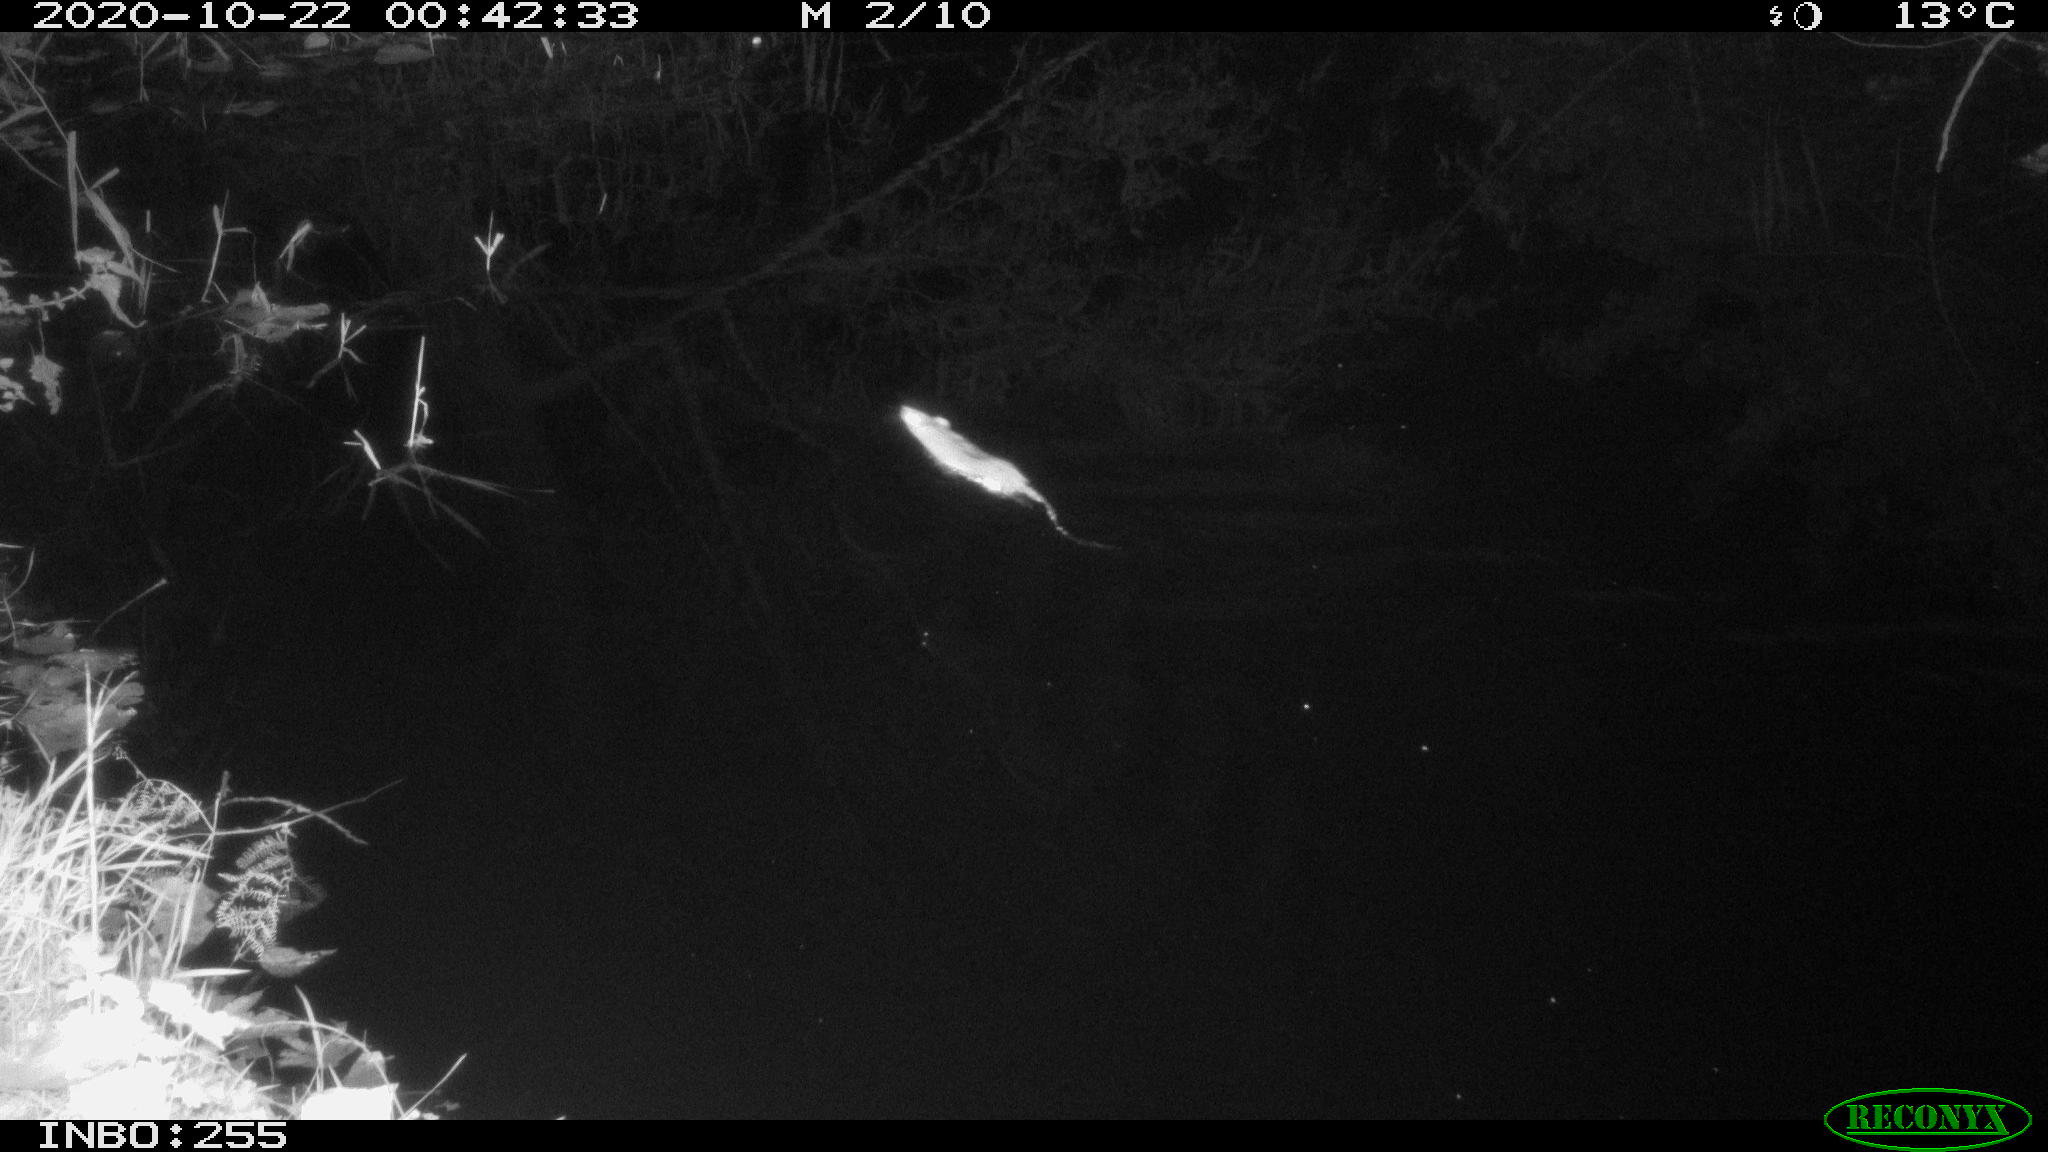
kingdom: Animalia
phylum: Chordata
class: Mammalia
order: Rodentia
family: Muridae
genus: Rattus
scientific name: Rattus norvegicus
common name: Brown rat
